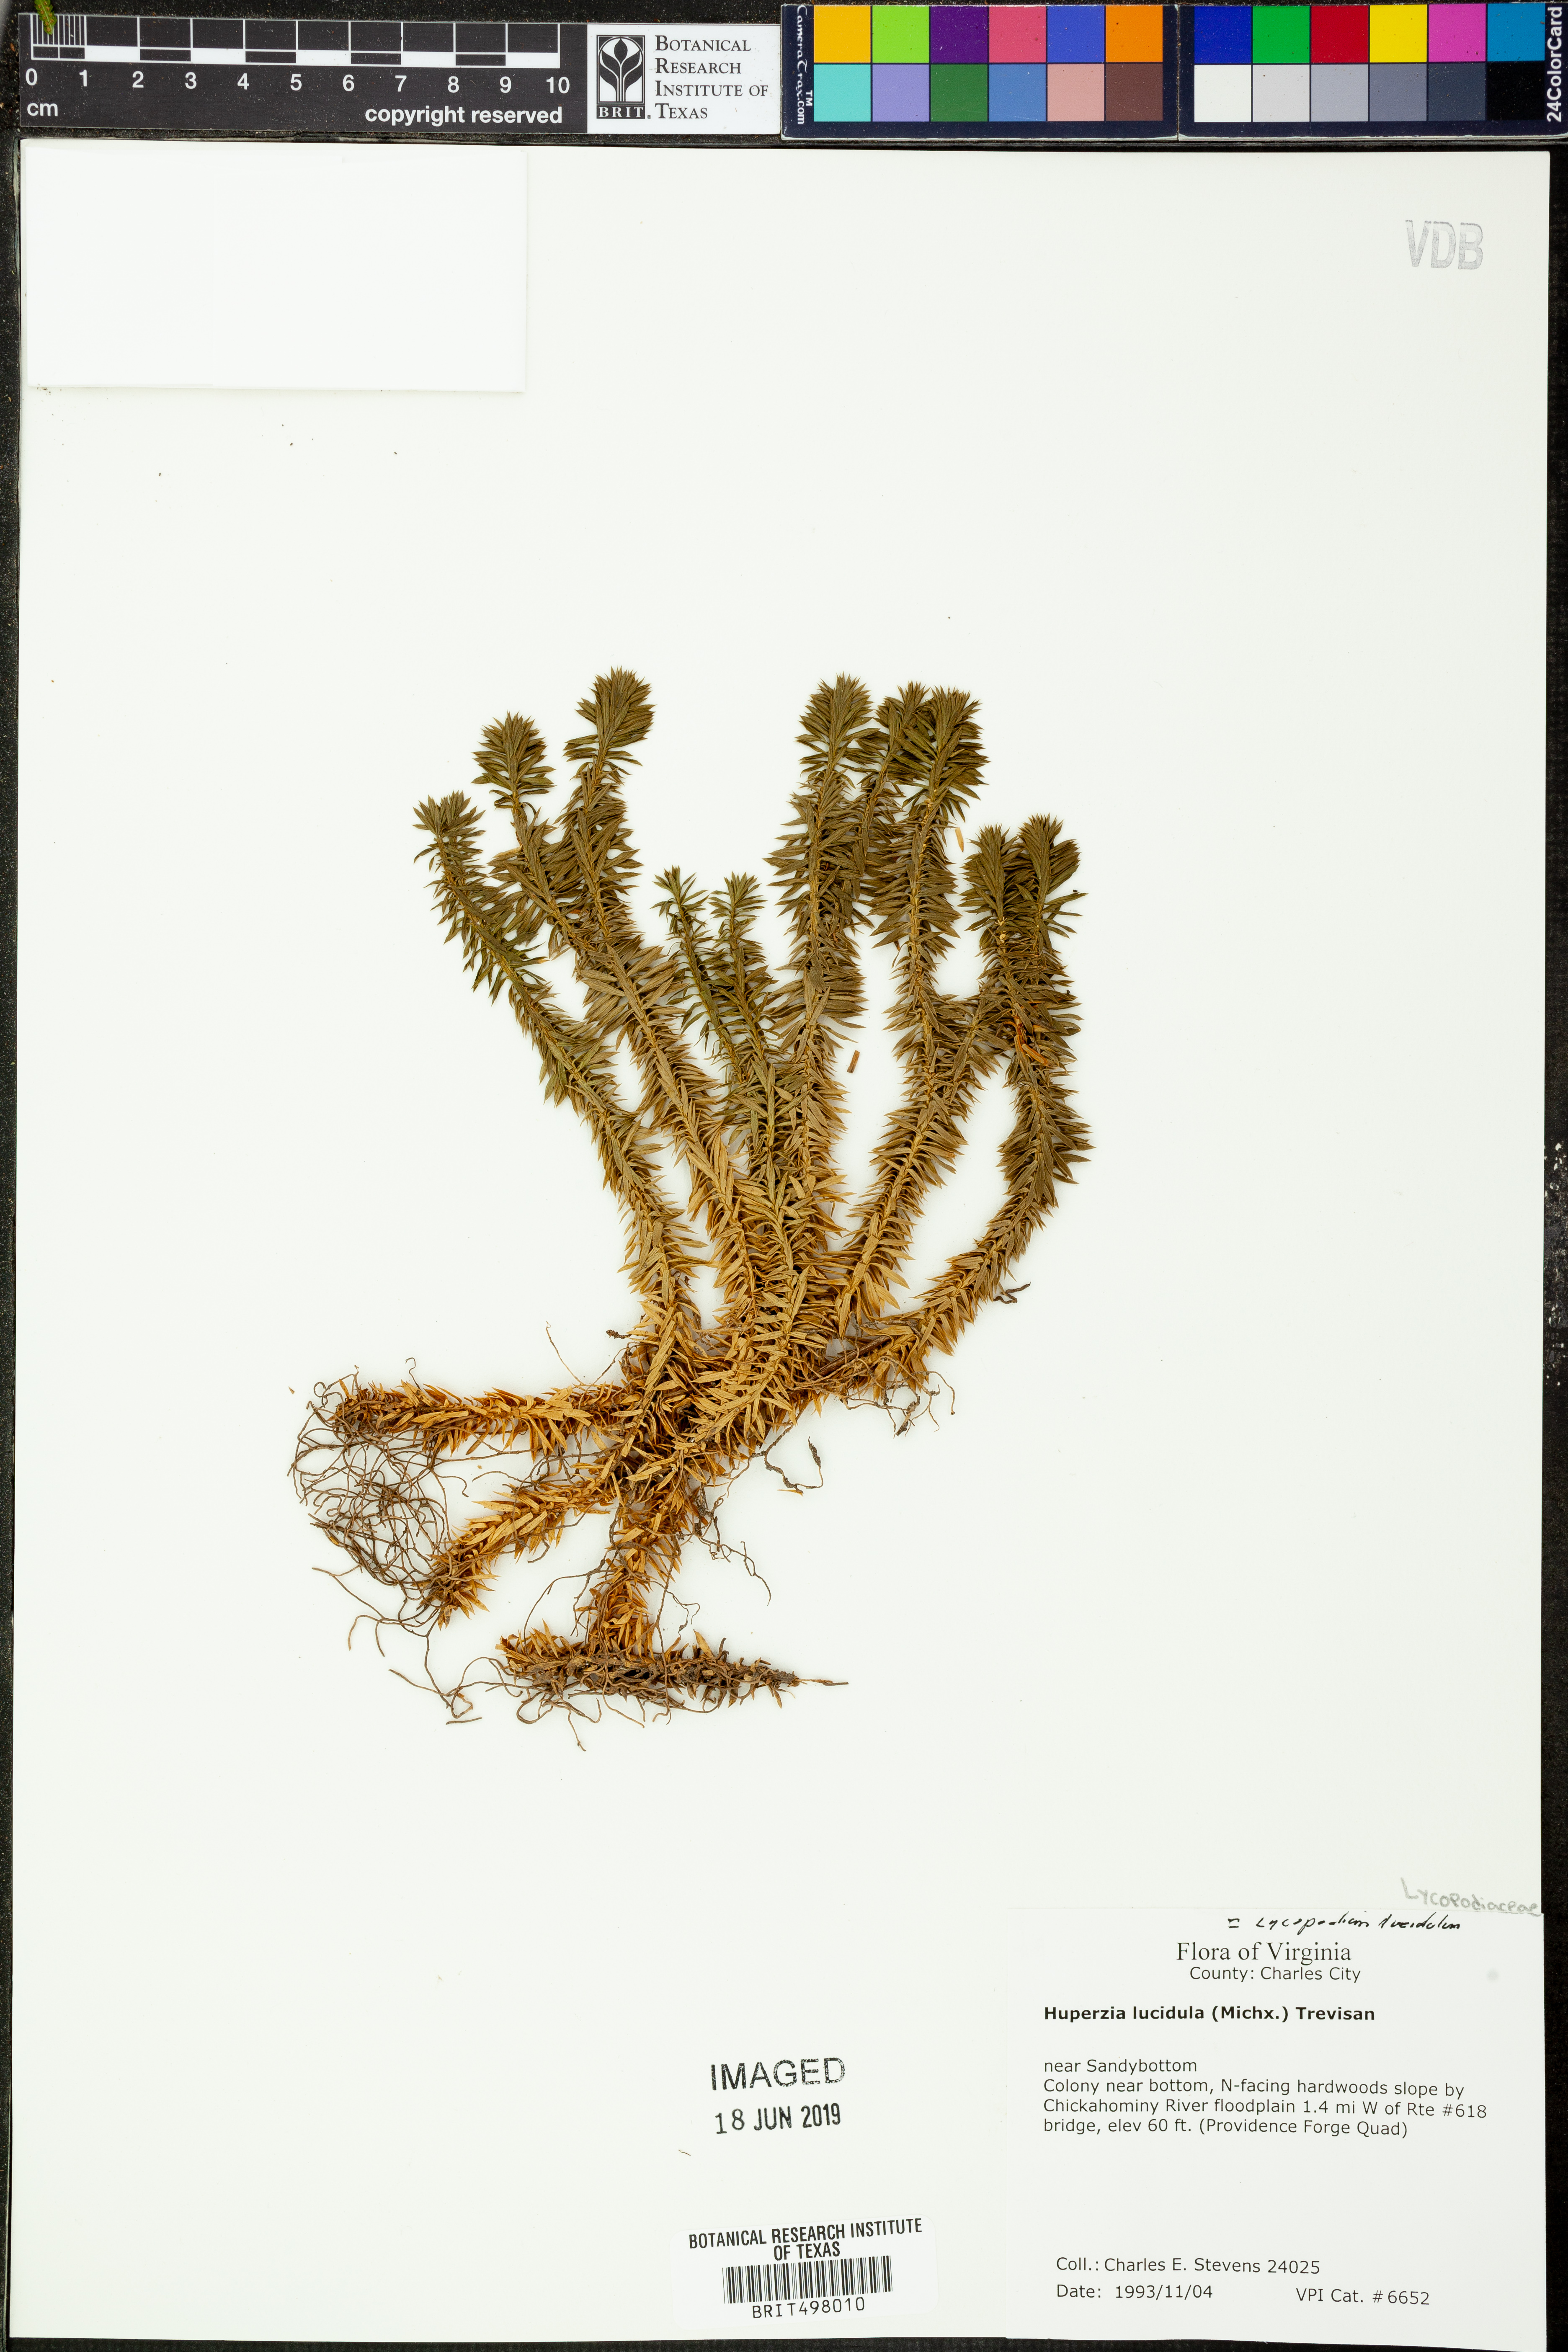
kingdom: Plantae
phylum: Tracheophyta
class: Lycopodiopsida
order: Lycopodiales
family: Lycopodiaceae
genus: Huperzia
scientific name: Huperzia lucidula
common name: Shining clubmoss
